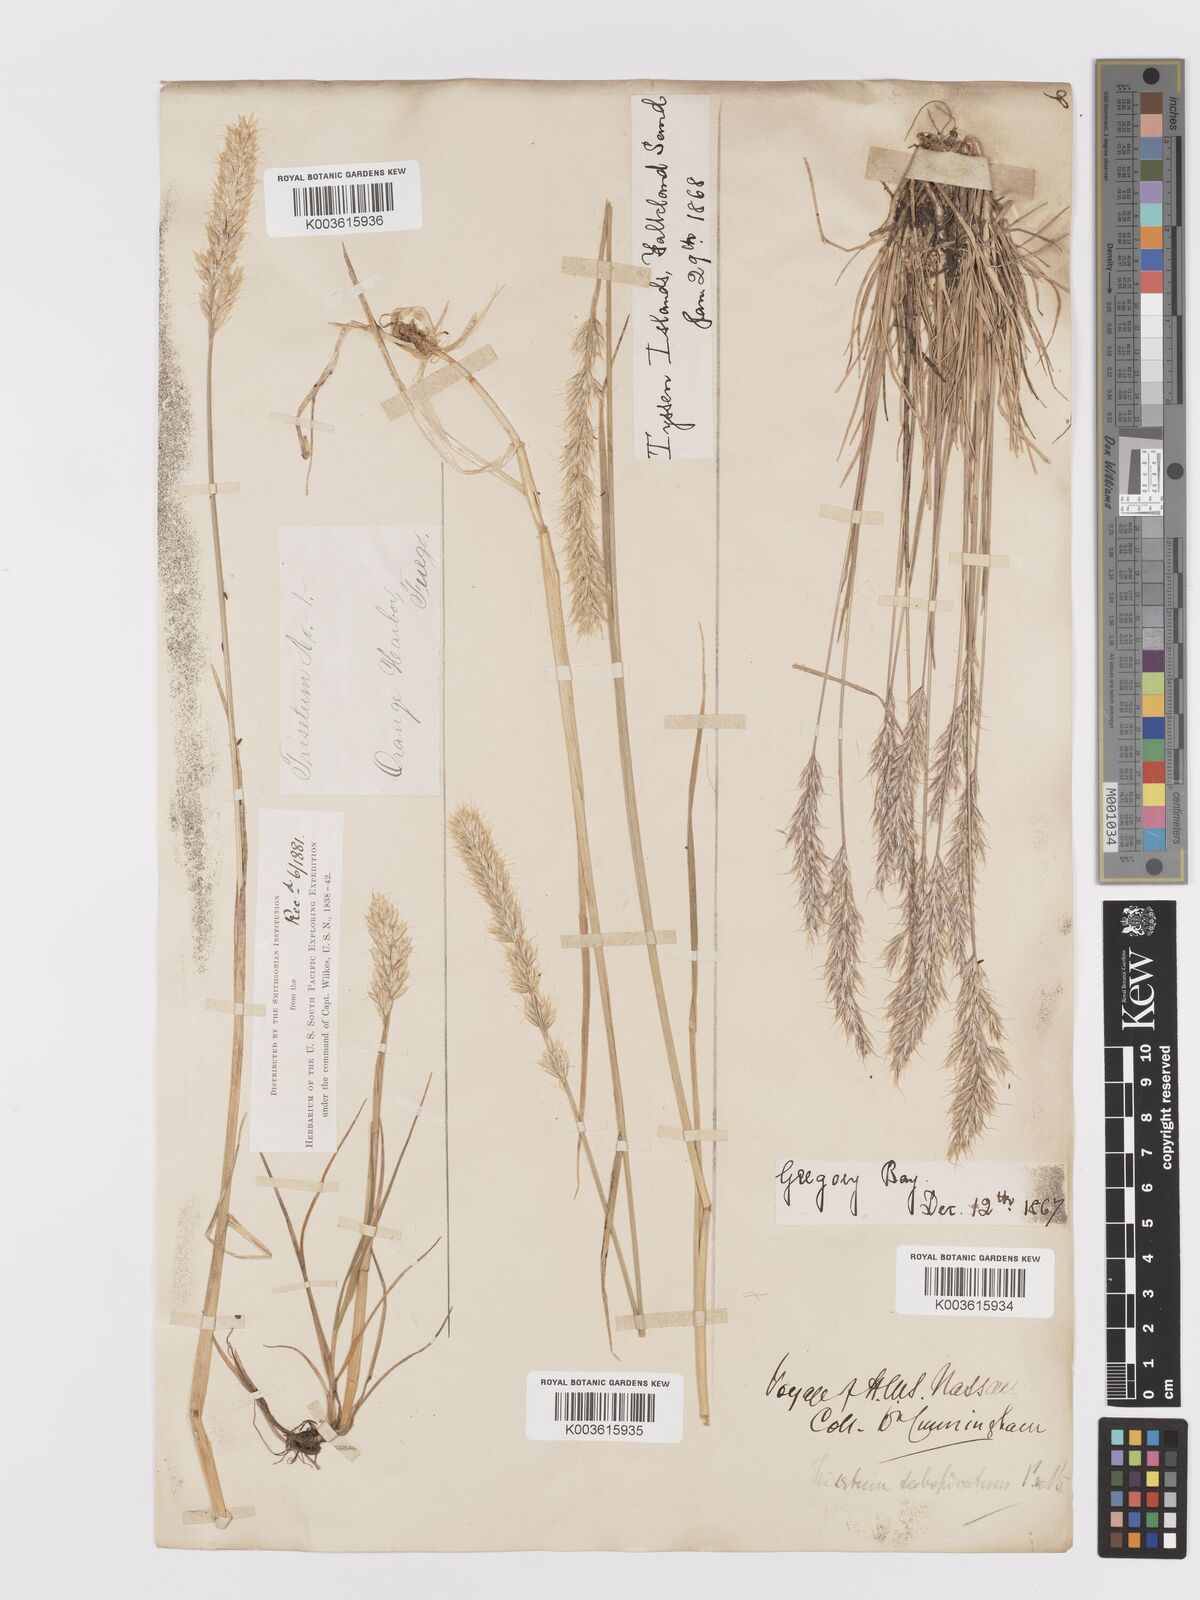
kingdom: Plantae
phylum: Tracheophyta
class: Liliopsida
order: Poales
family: Poaceae
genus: Koeleria
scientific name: Koeleria spicata
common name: Mountain trisetum
